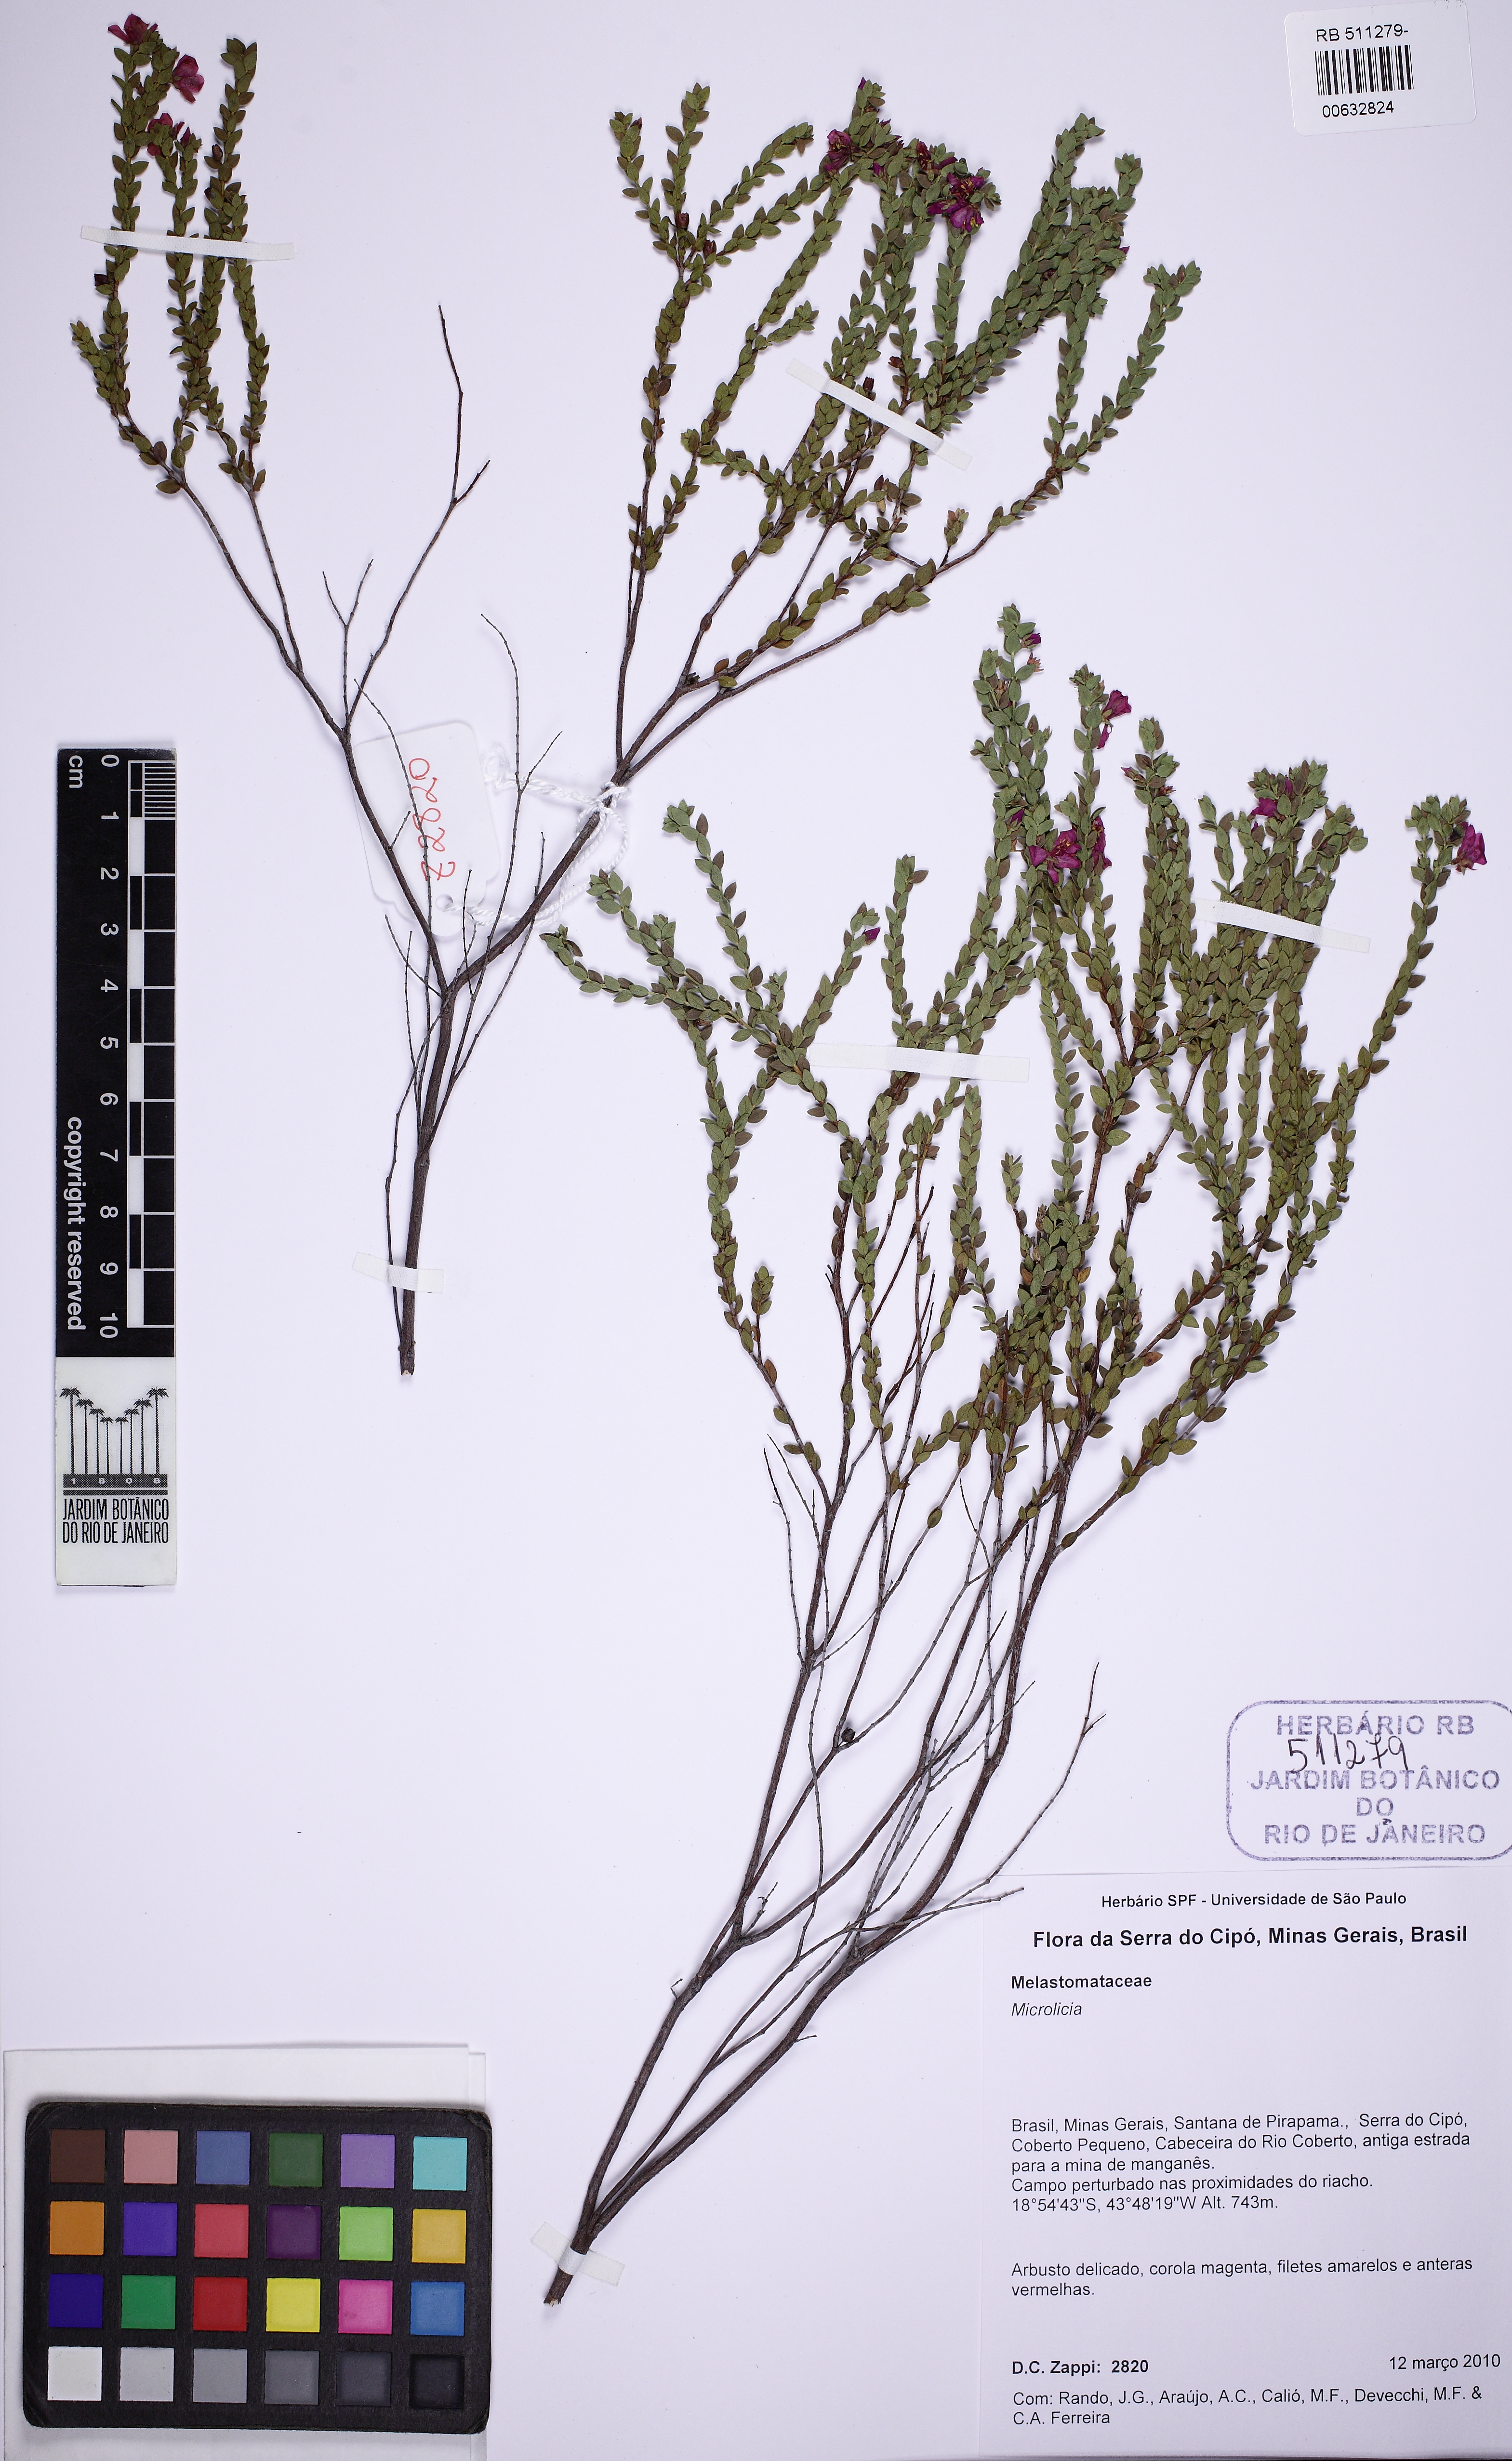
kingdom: Plantae
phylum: Tracheophyta
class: Magnoliopsida
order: Myrtales
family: Melastomataceae
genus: Microlicia
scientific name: Microlicia confertiflora
